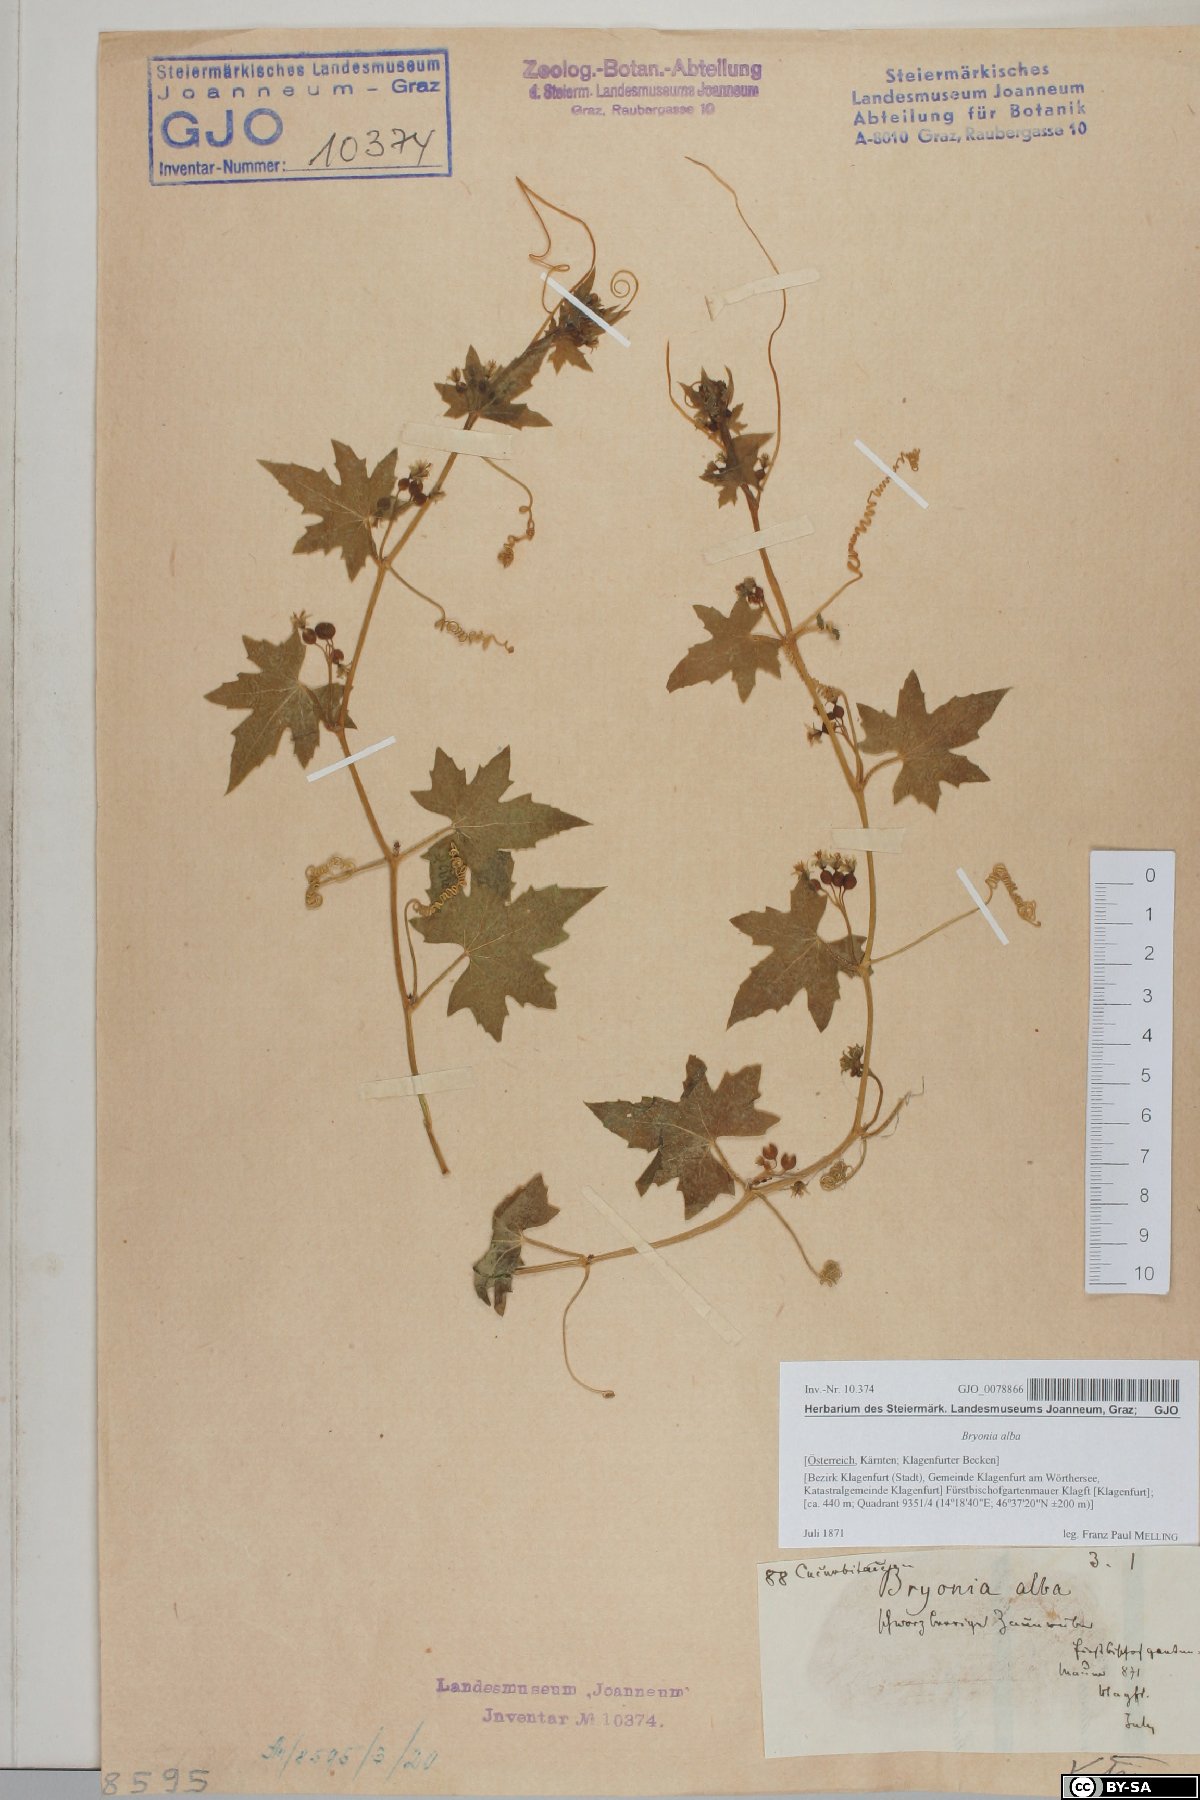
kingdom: Plantae
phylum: Tracheophyta
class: Magnoliopsida
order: Cucurbitales
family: Cucurbitaceae
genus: Bryonia
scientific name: Bryonia alba
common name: White bryony
